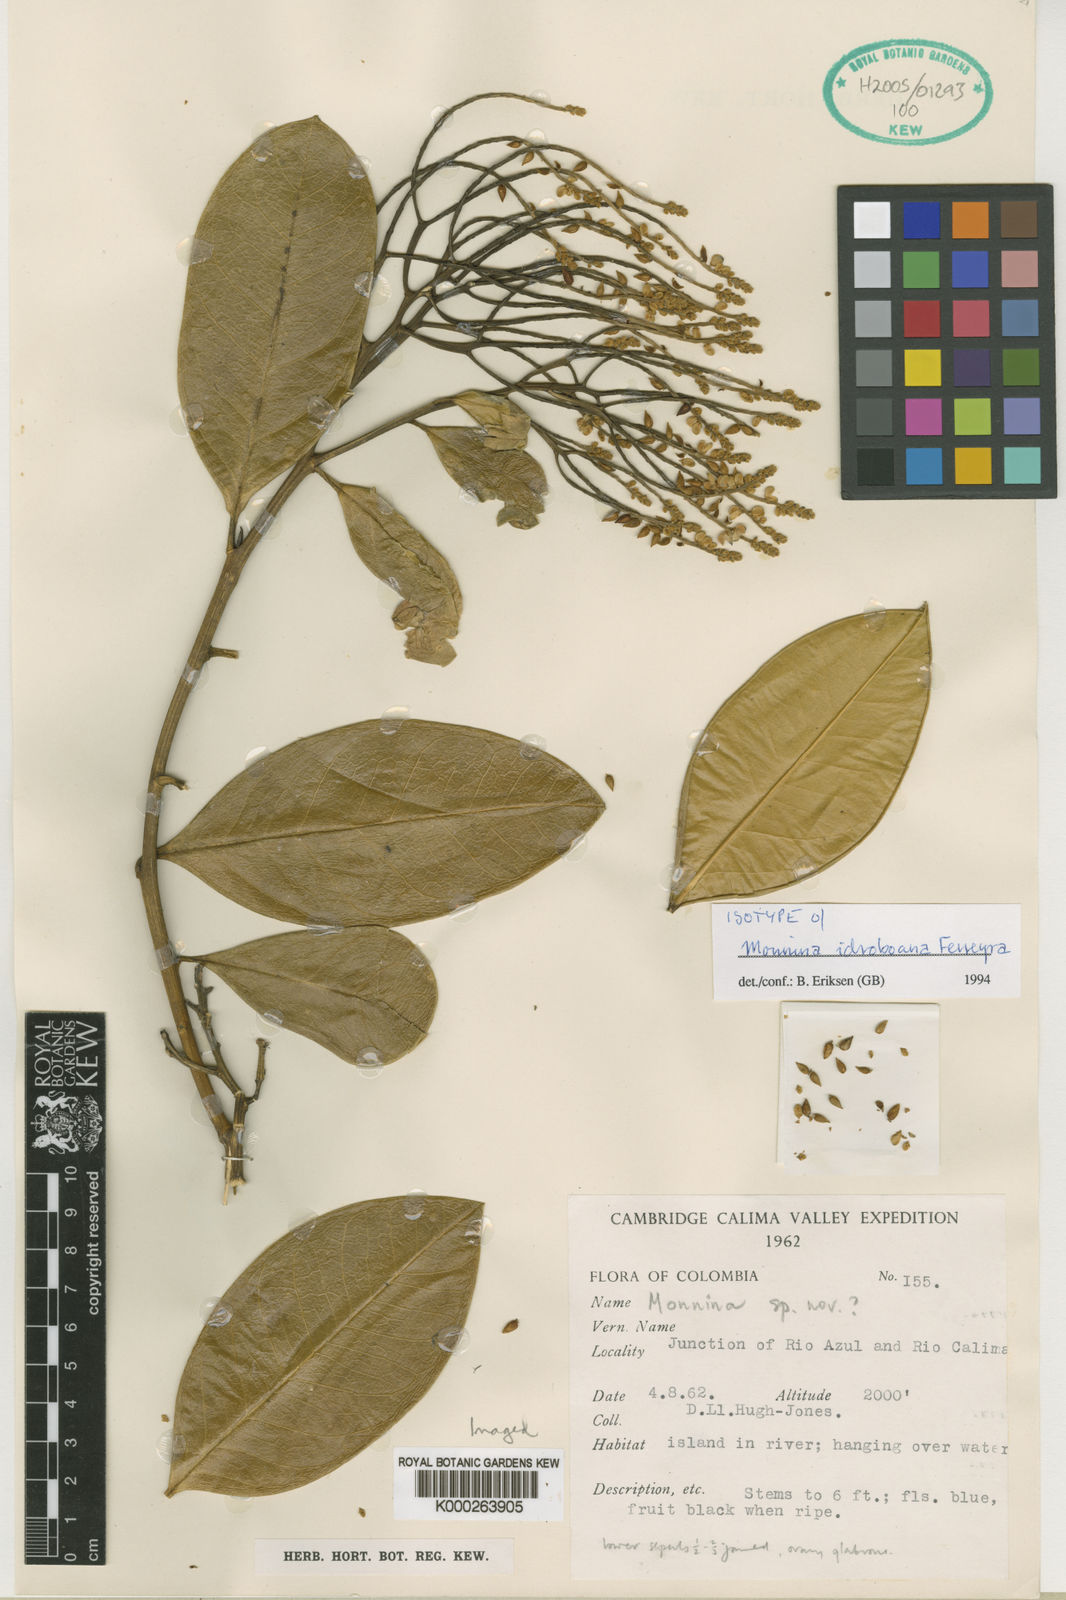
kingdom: Plantae
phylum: Tracheophyta
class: Magnoliopsida
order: Fabales
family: Polygalaceae
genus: Monnina
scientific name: Monnina idroboana
